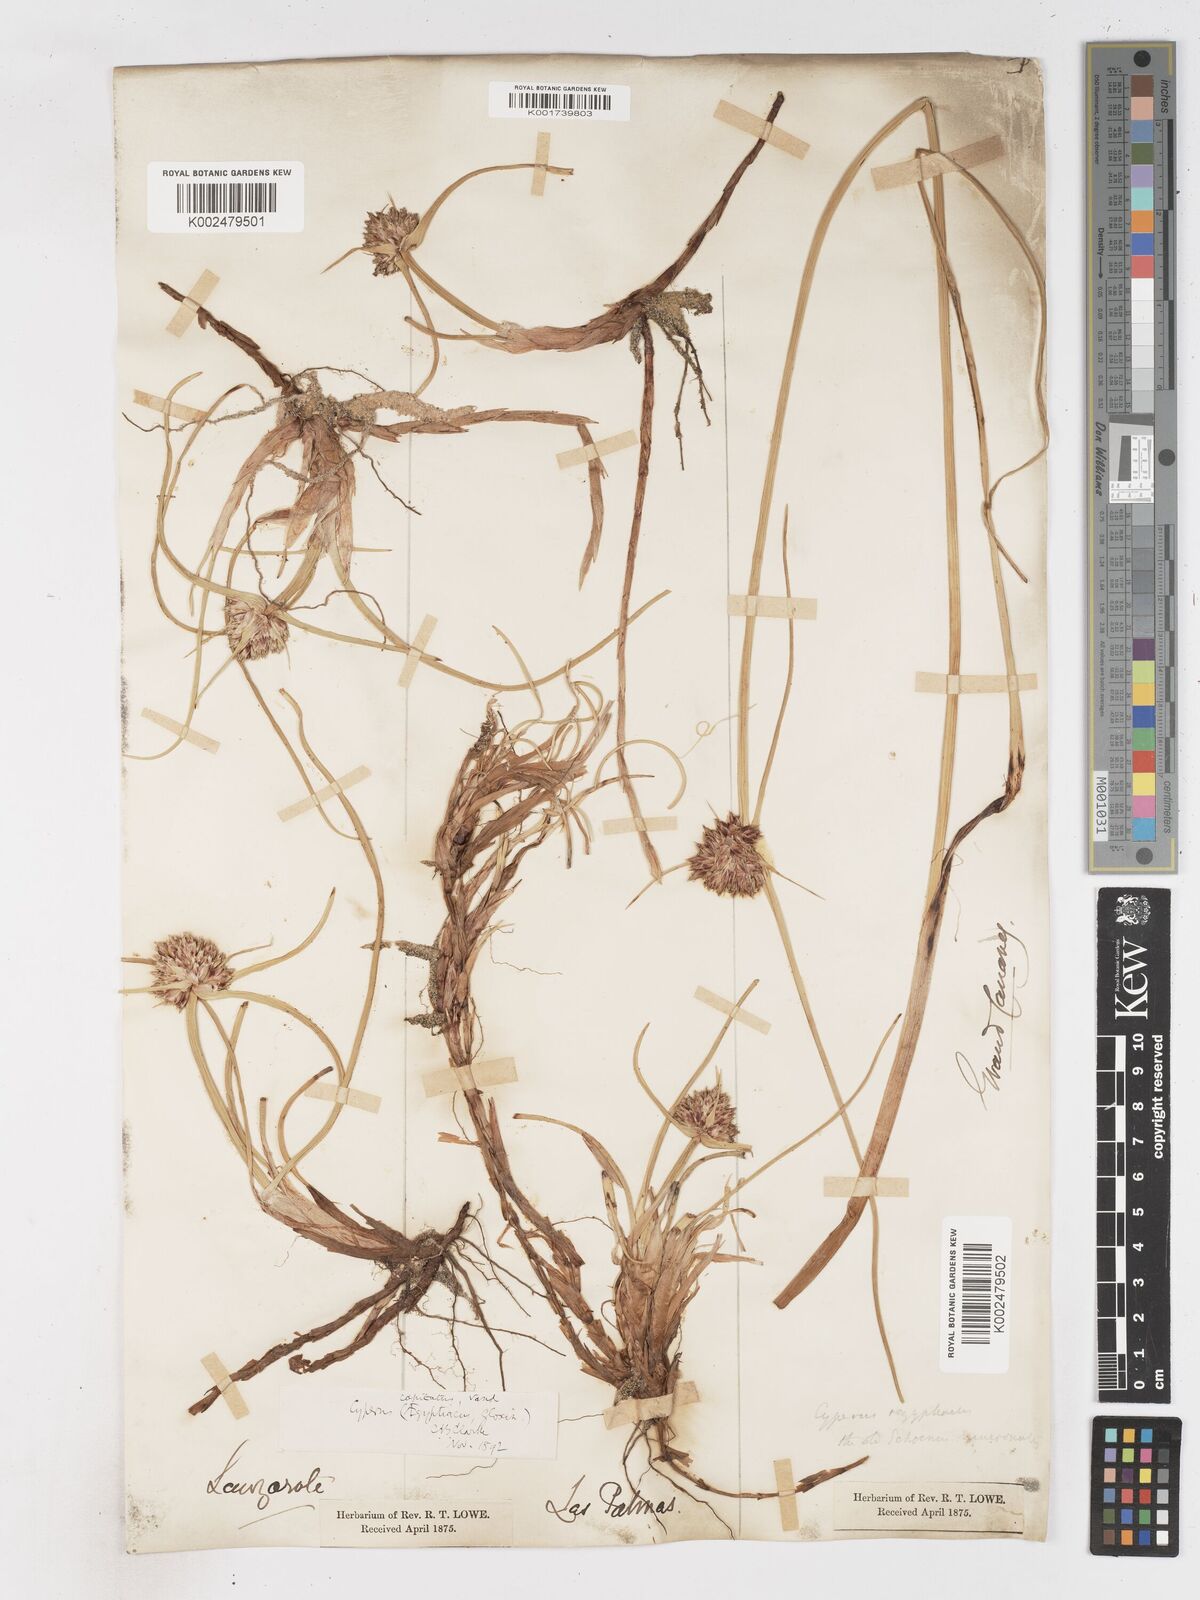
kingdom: Plantae
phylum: Tracheophyta
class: Liliopsida
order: Poales
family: Cyperaceae
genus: Cyperus
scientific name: Cyperus capitatus
